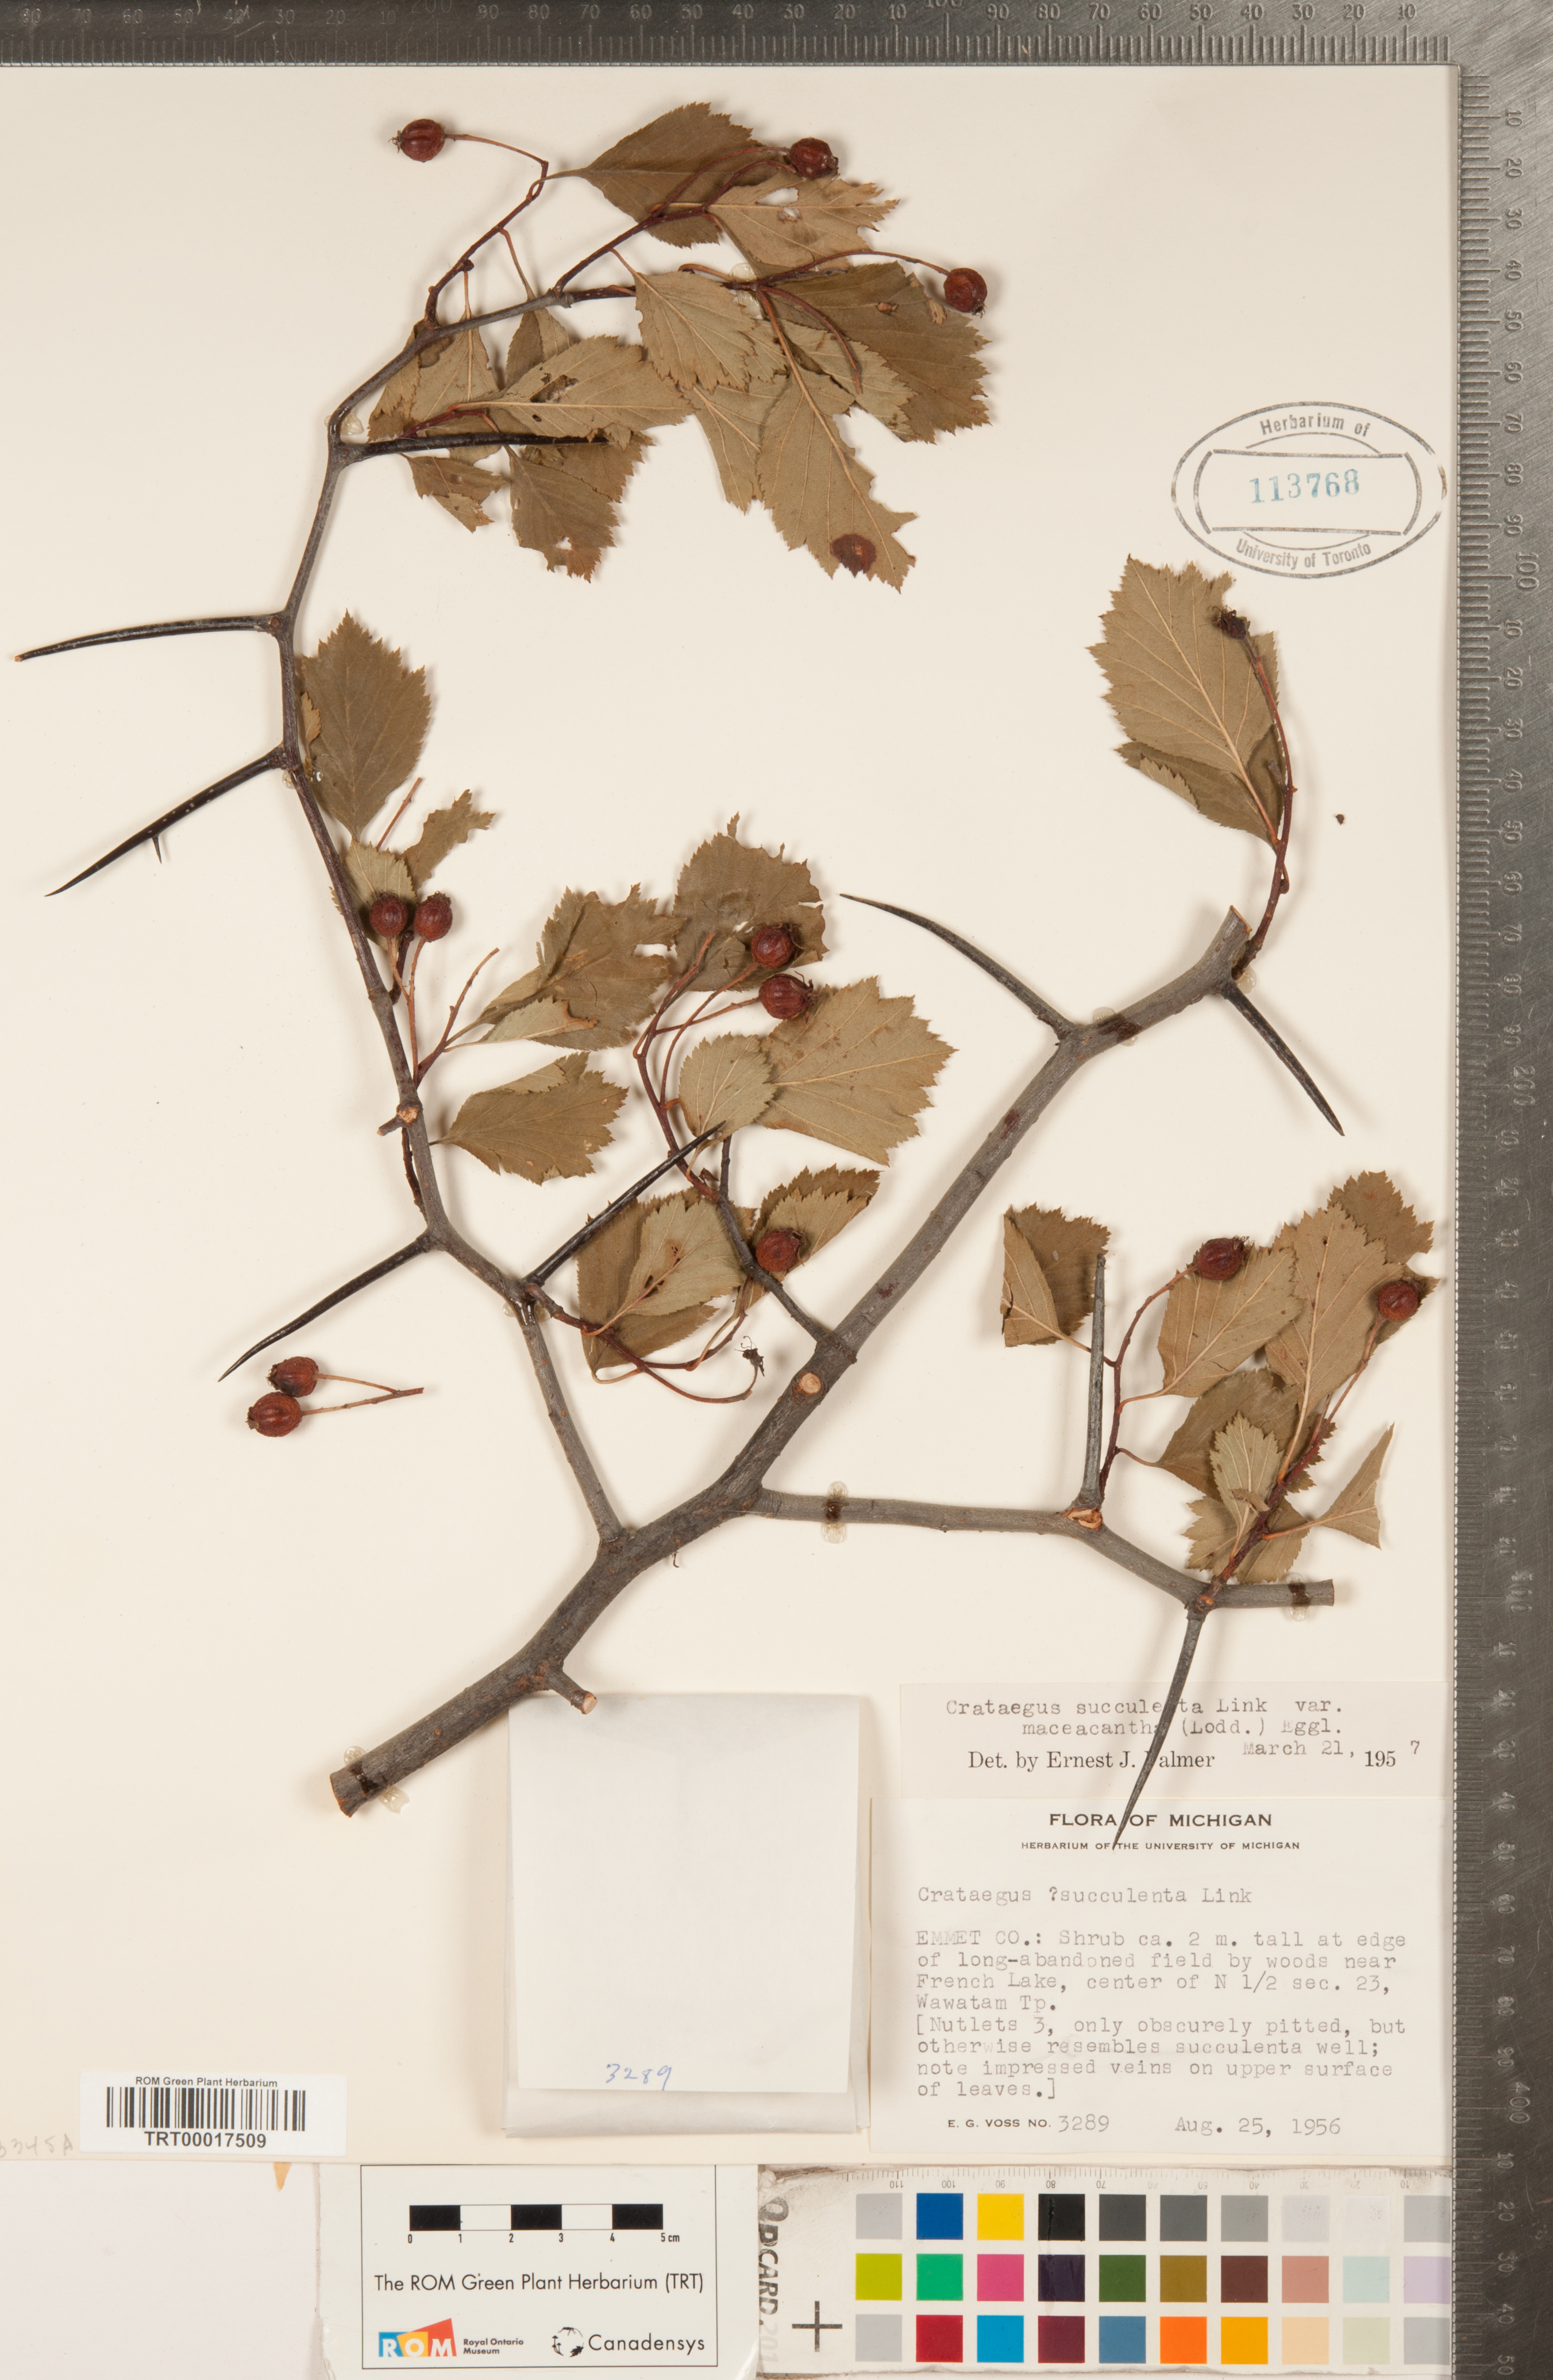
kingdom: Plantae
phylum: Tracheophyta
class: Magnoliopsida
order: Rosales
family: Rosaceae
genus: Crataegus
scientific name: Crataegus macracantha
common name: Large-thorn hawthorn
